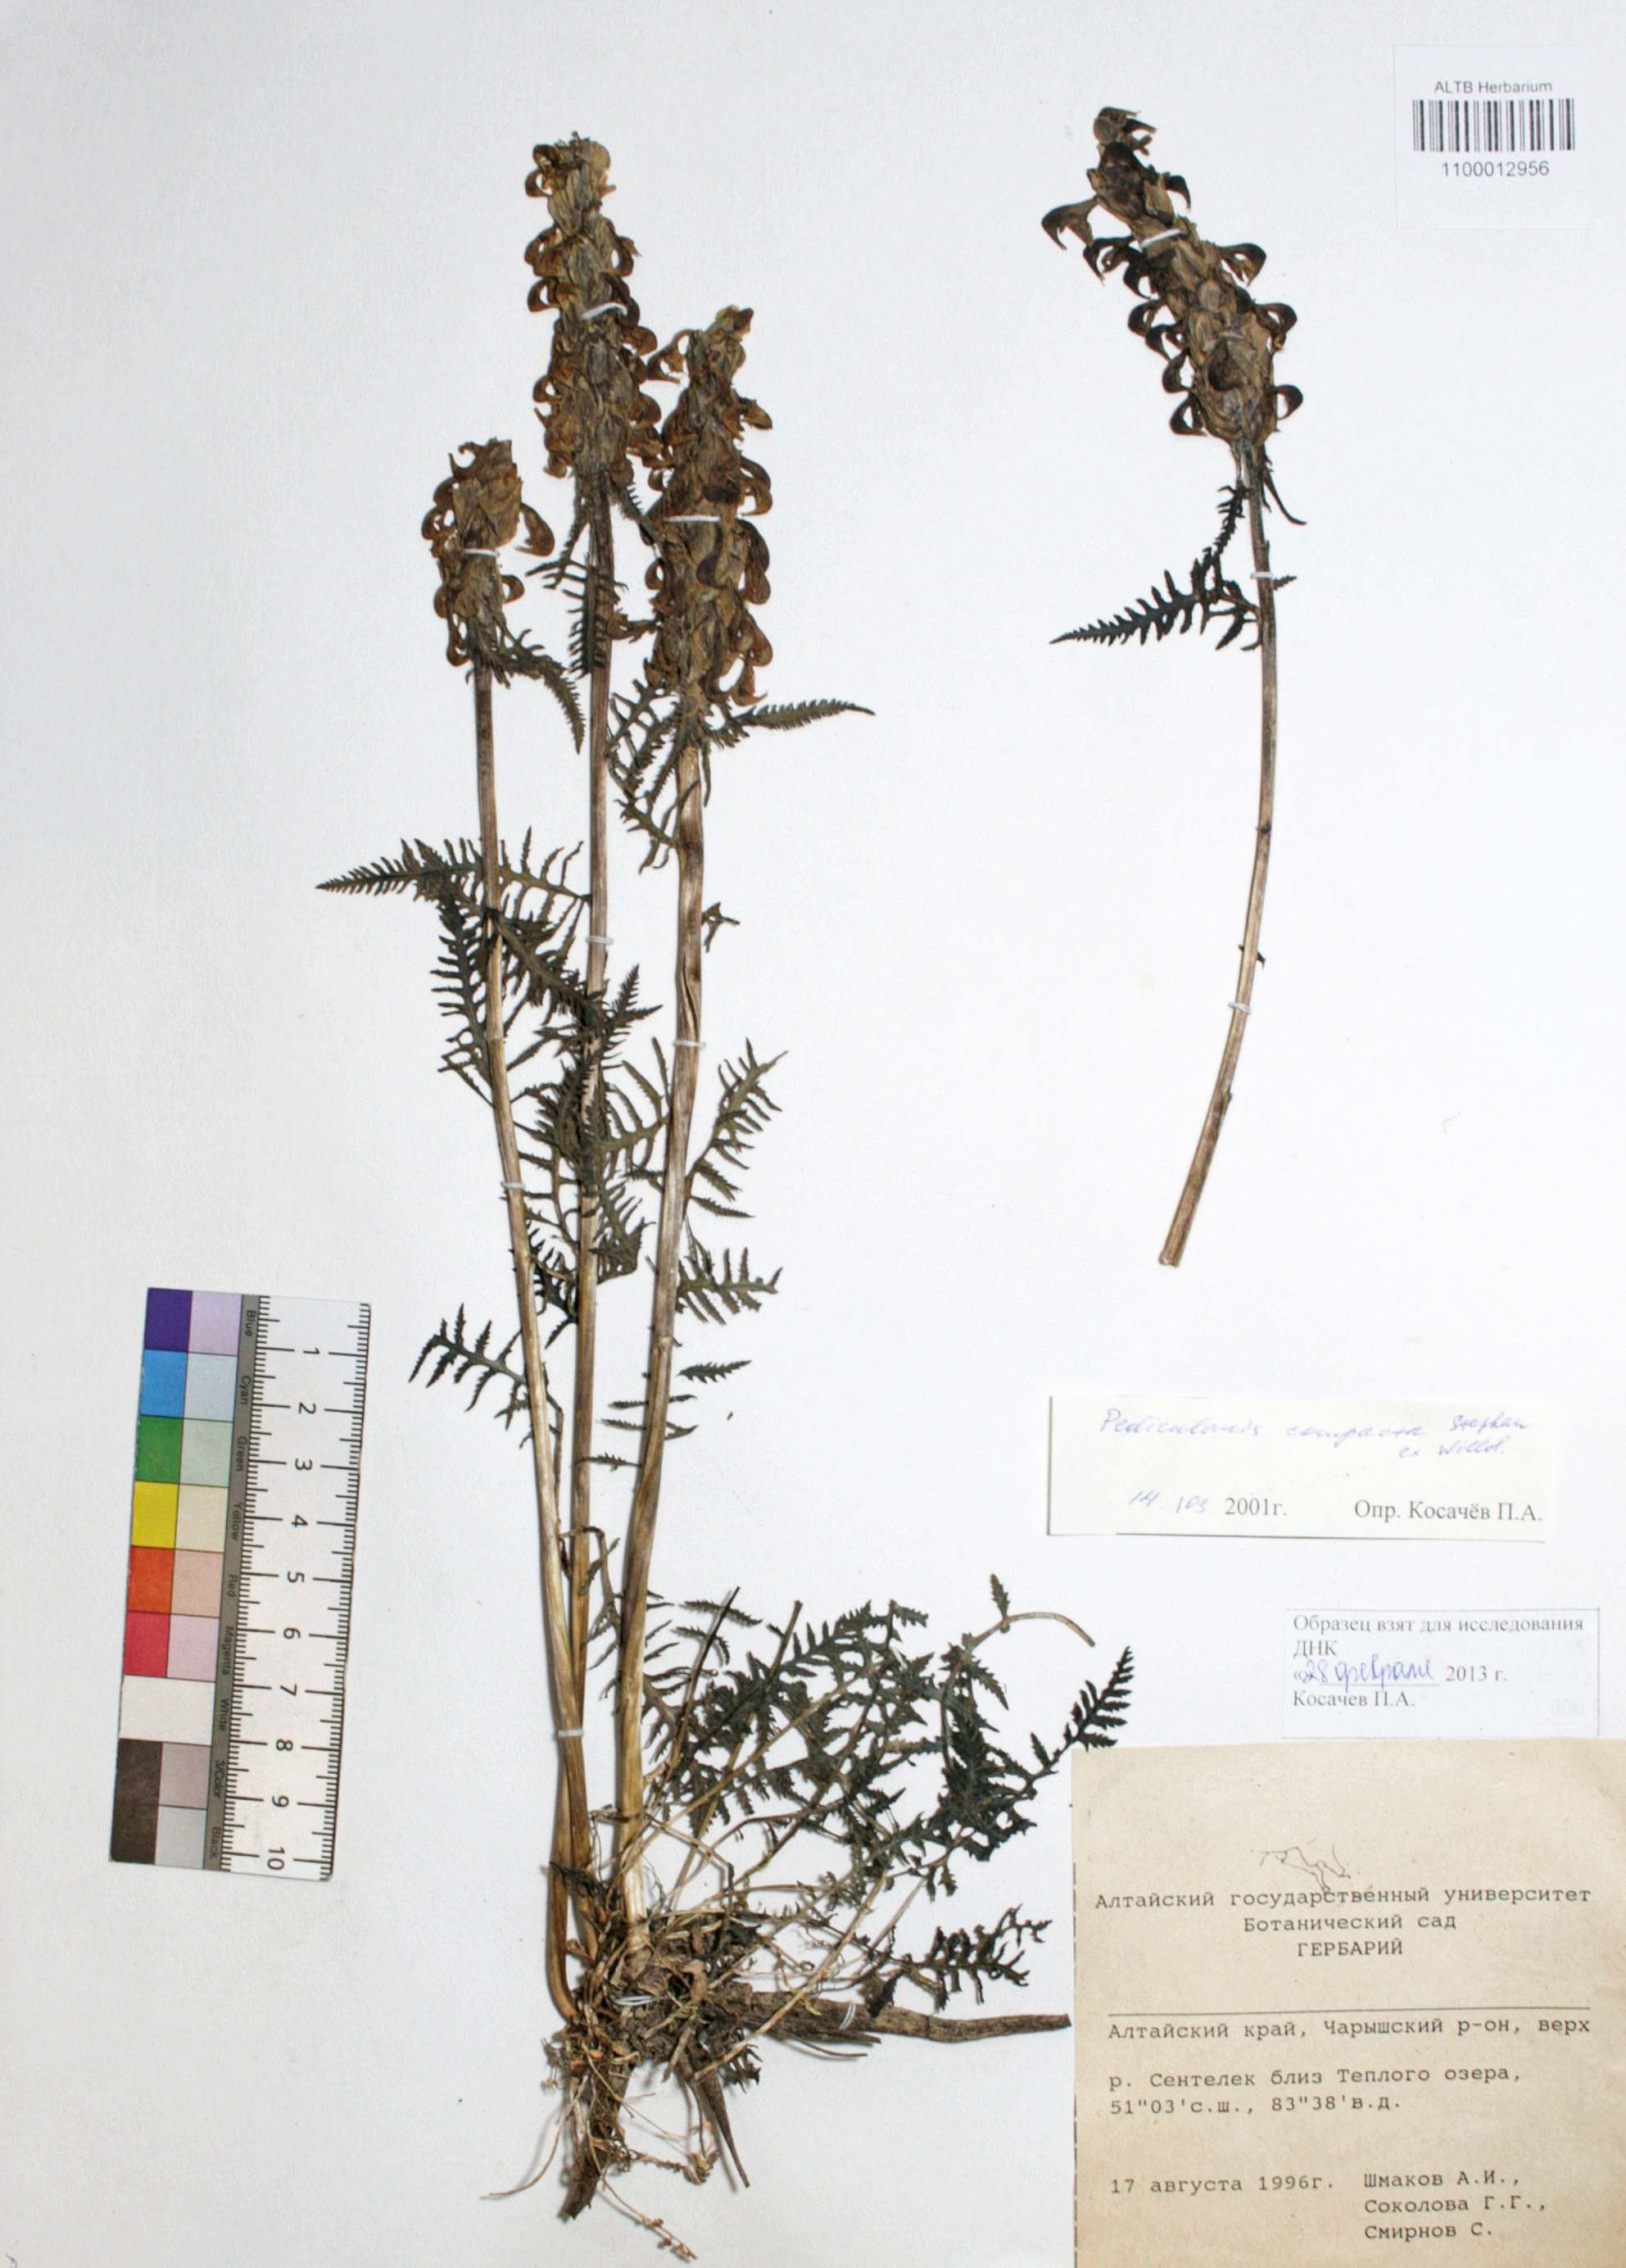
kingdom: Plantae
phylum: Tracheophyta
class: Magnoliopsida
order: Lamiales
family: Orobanchaceae
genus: Pedicularis
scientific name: Pedicularis compacta
